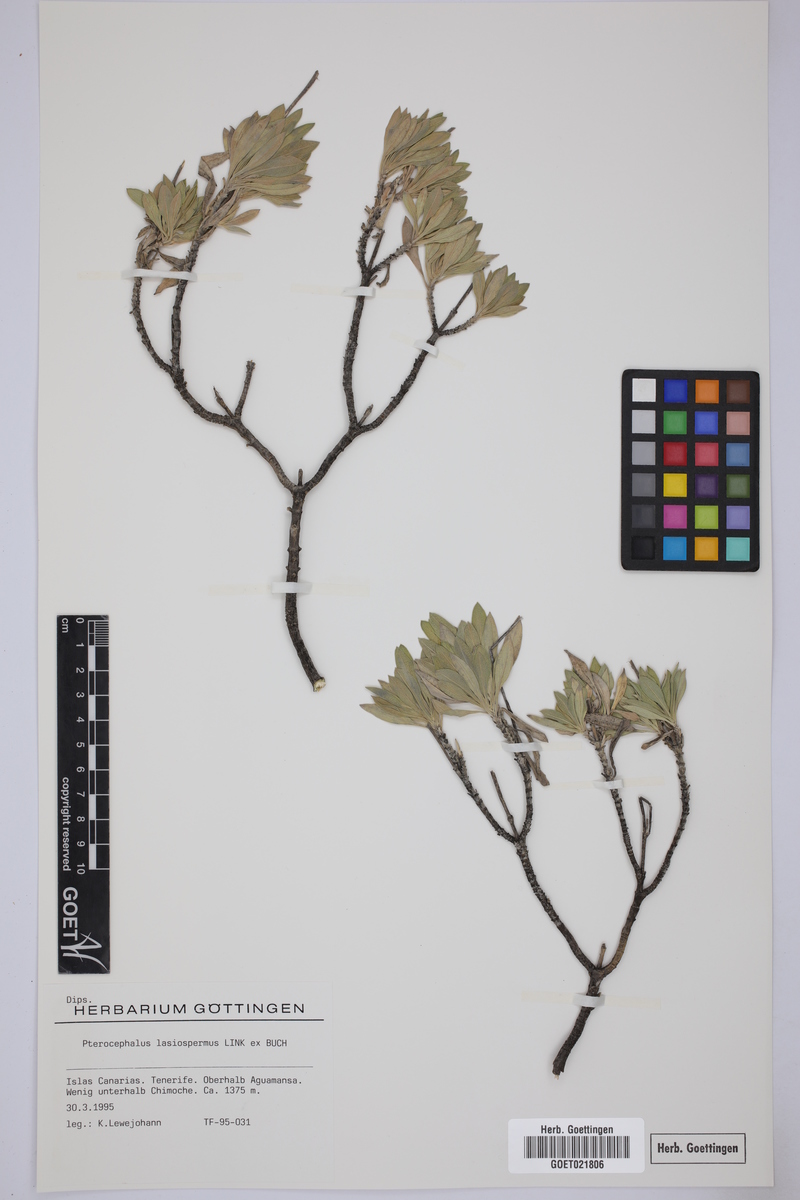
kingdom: Plantae
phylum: Tracheophyta
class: Magnoliopsida
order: Dipsacales
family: Caprifoliaceae
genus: Pterocephalus
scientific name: Pterocephalus lasiospermus
